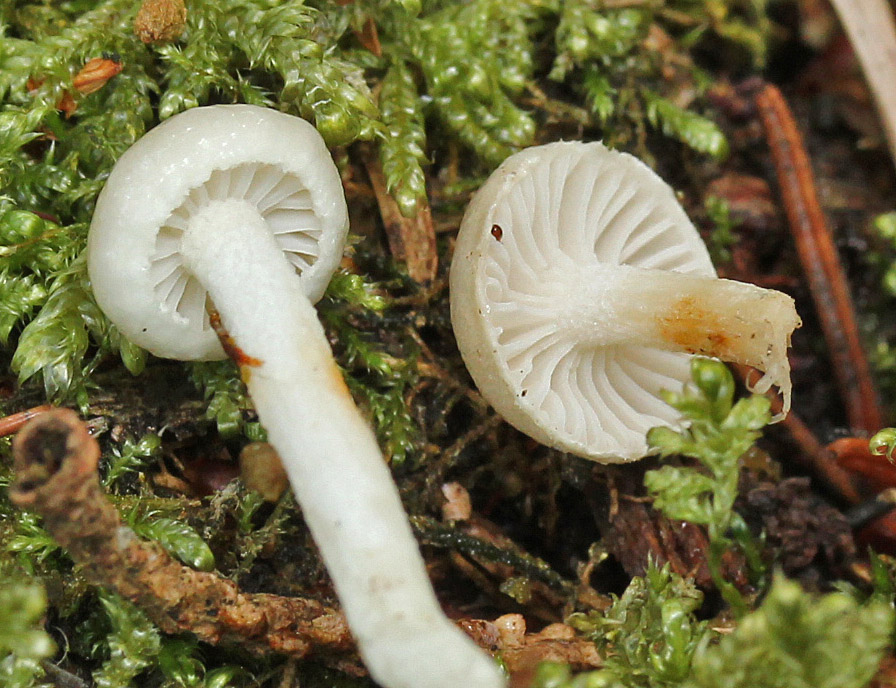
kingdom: Fungi
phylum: Basidiomycota
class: Agaricomycetes
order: Agaricales
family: Hygrophoraceae
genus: Hygrophorus
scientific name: Hygrophorus exiguus
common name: spinkel sneglehat
